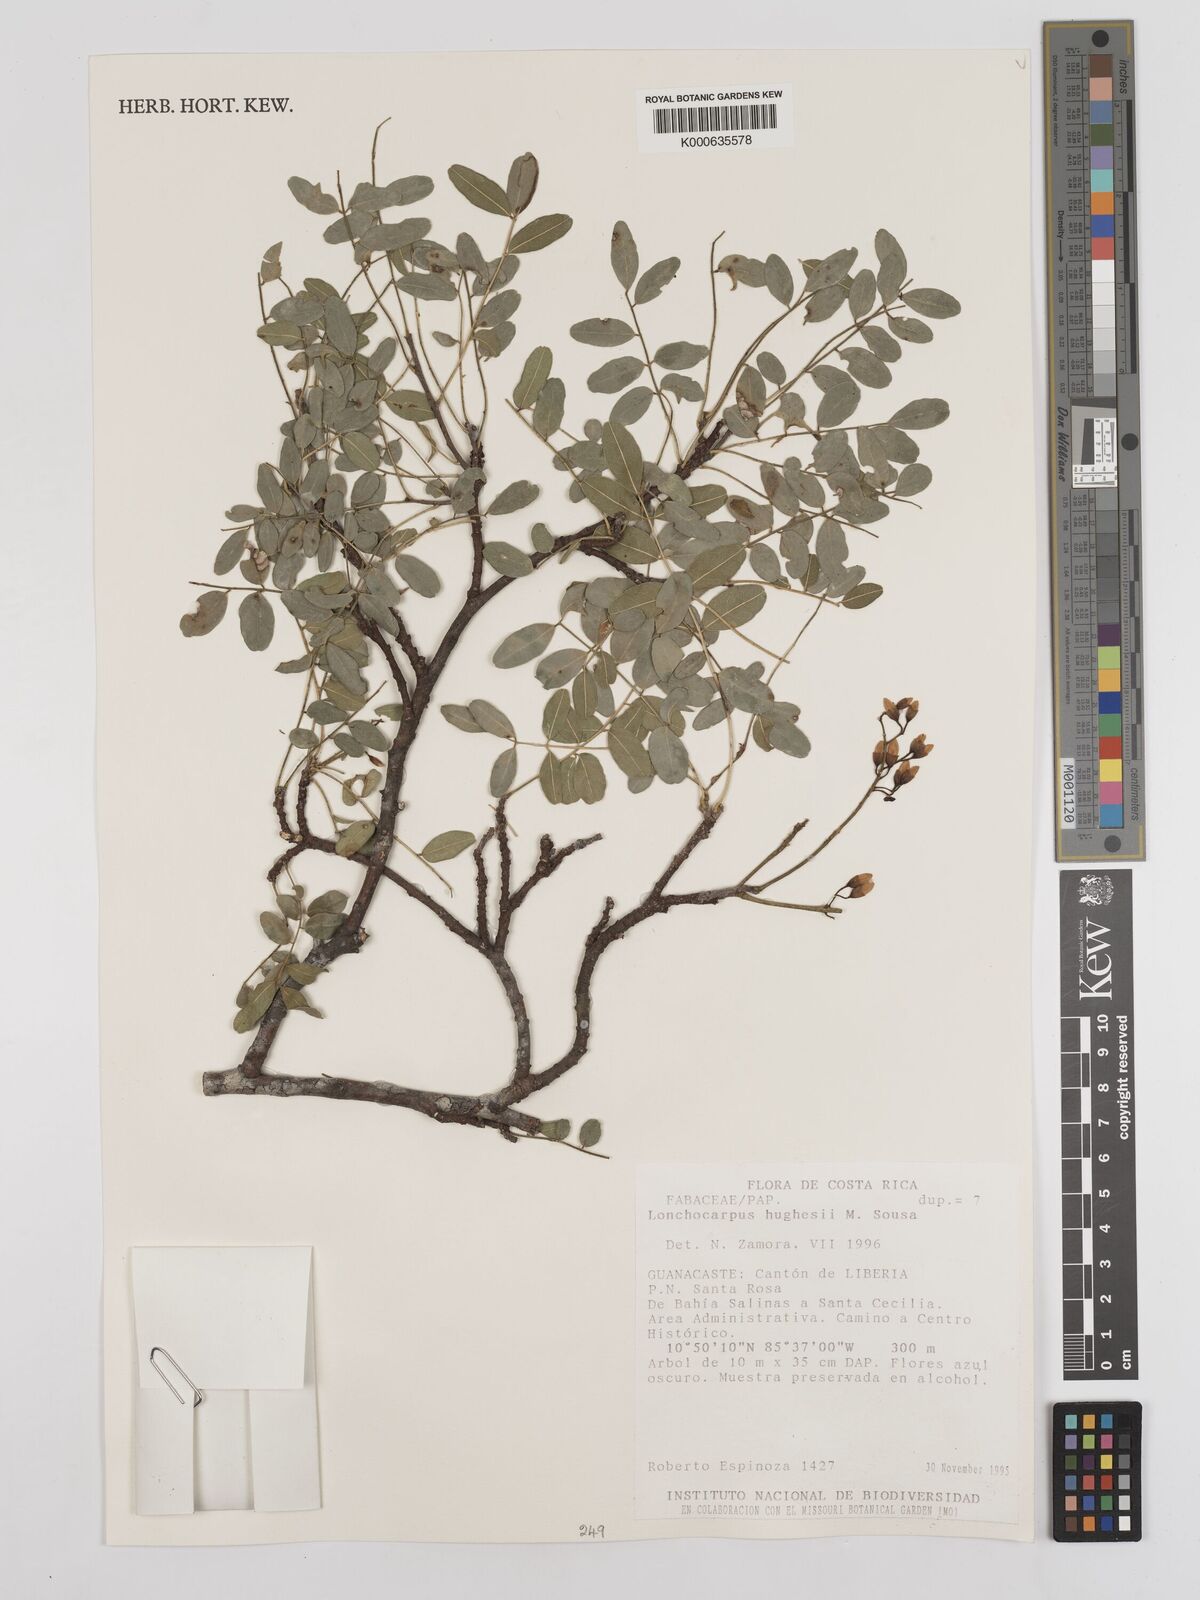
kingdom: Plantae
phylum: Tracheophyta
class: Magnoliopsida
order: Fabales
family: Fabaceae
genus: Lonchocarpus
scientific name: Lonchocarpus hughesii
